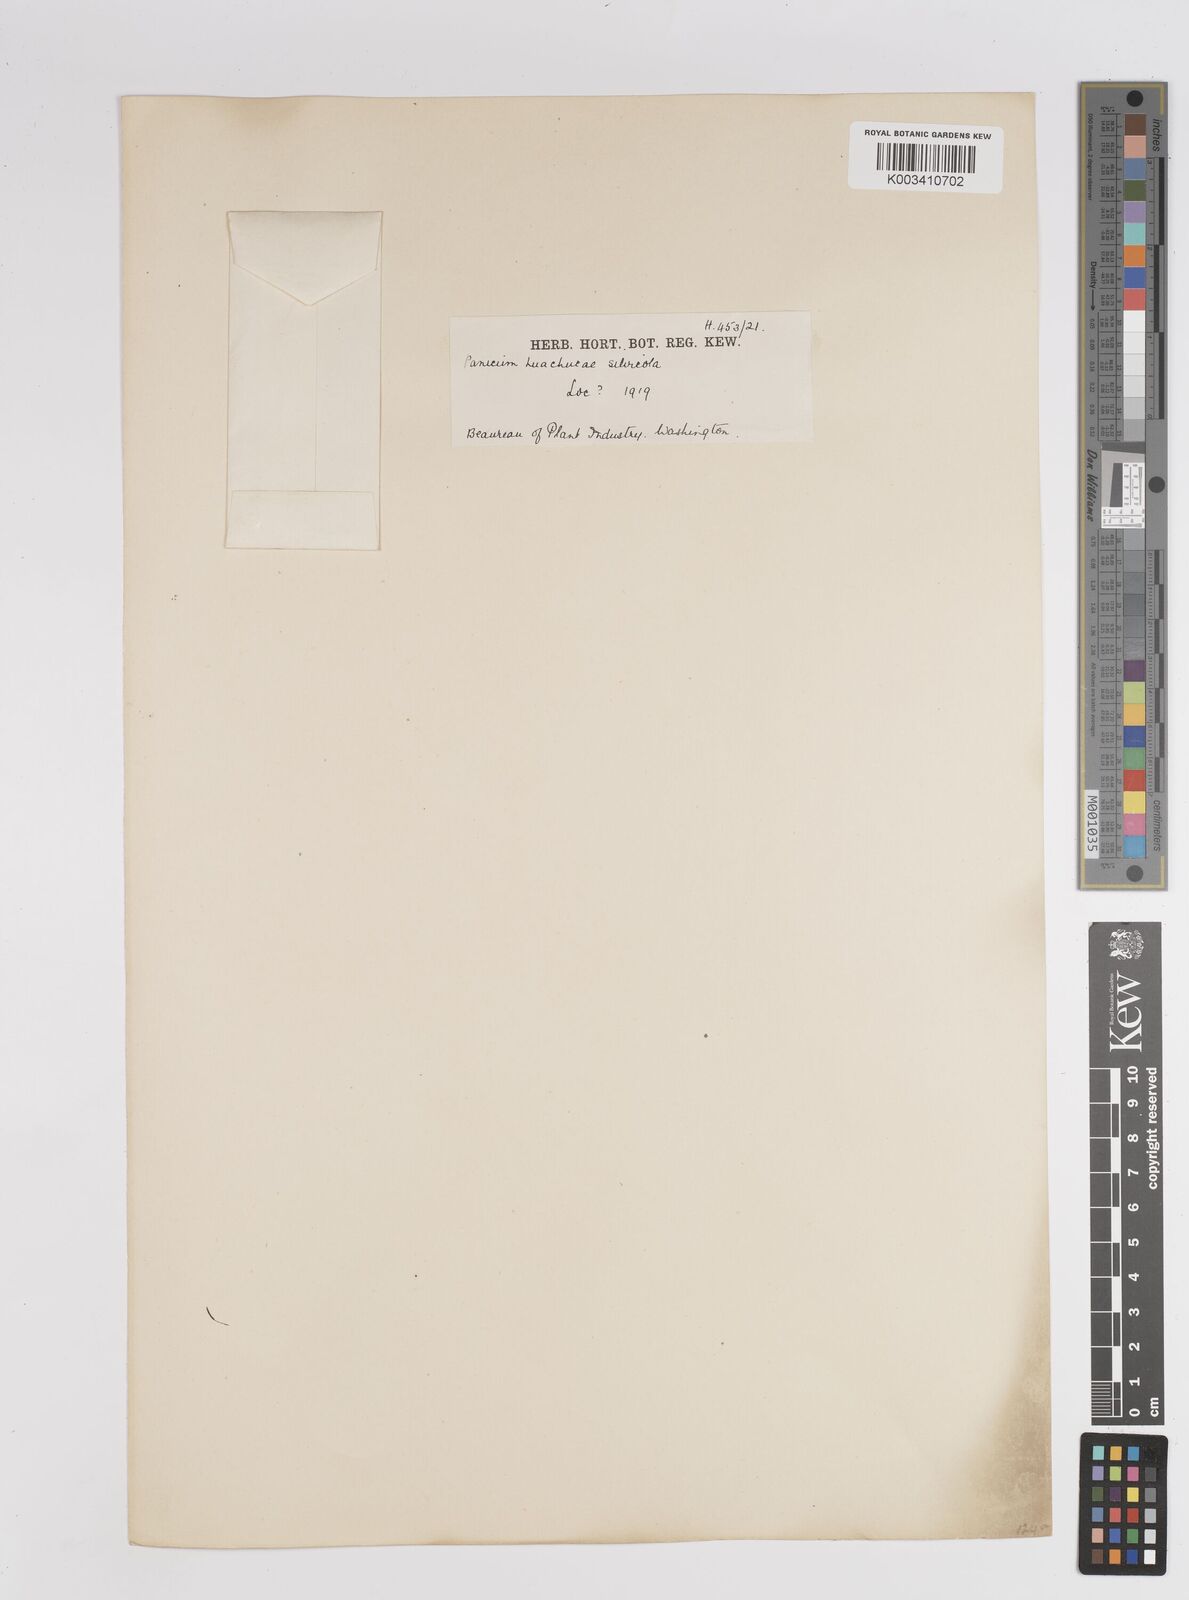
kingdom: Plantae
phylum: Tracheophyta
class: Liliopsida
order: Poales
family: Poaceae
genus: Dichanthelium
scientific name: Dichanthelium lanuginosum
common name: Woolly panicgrass
